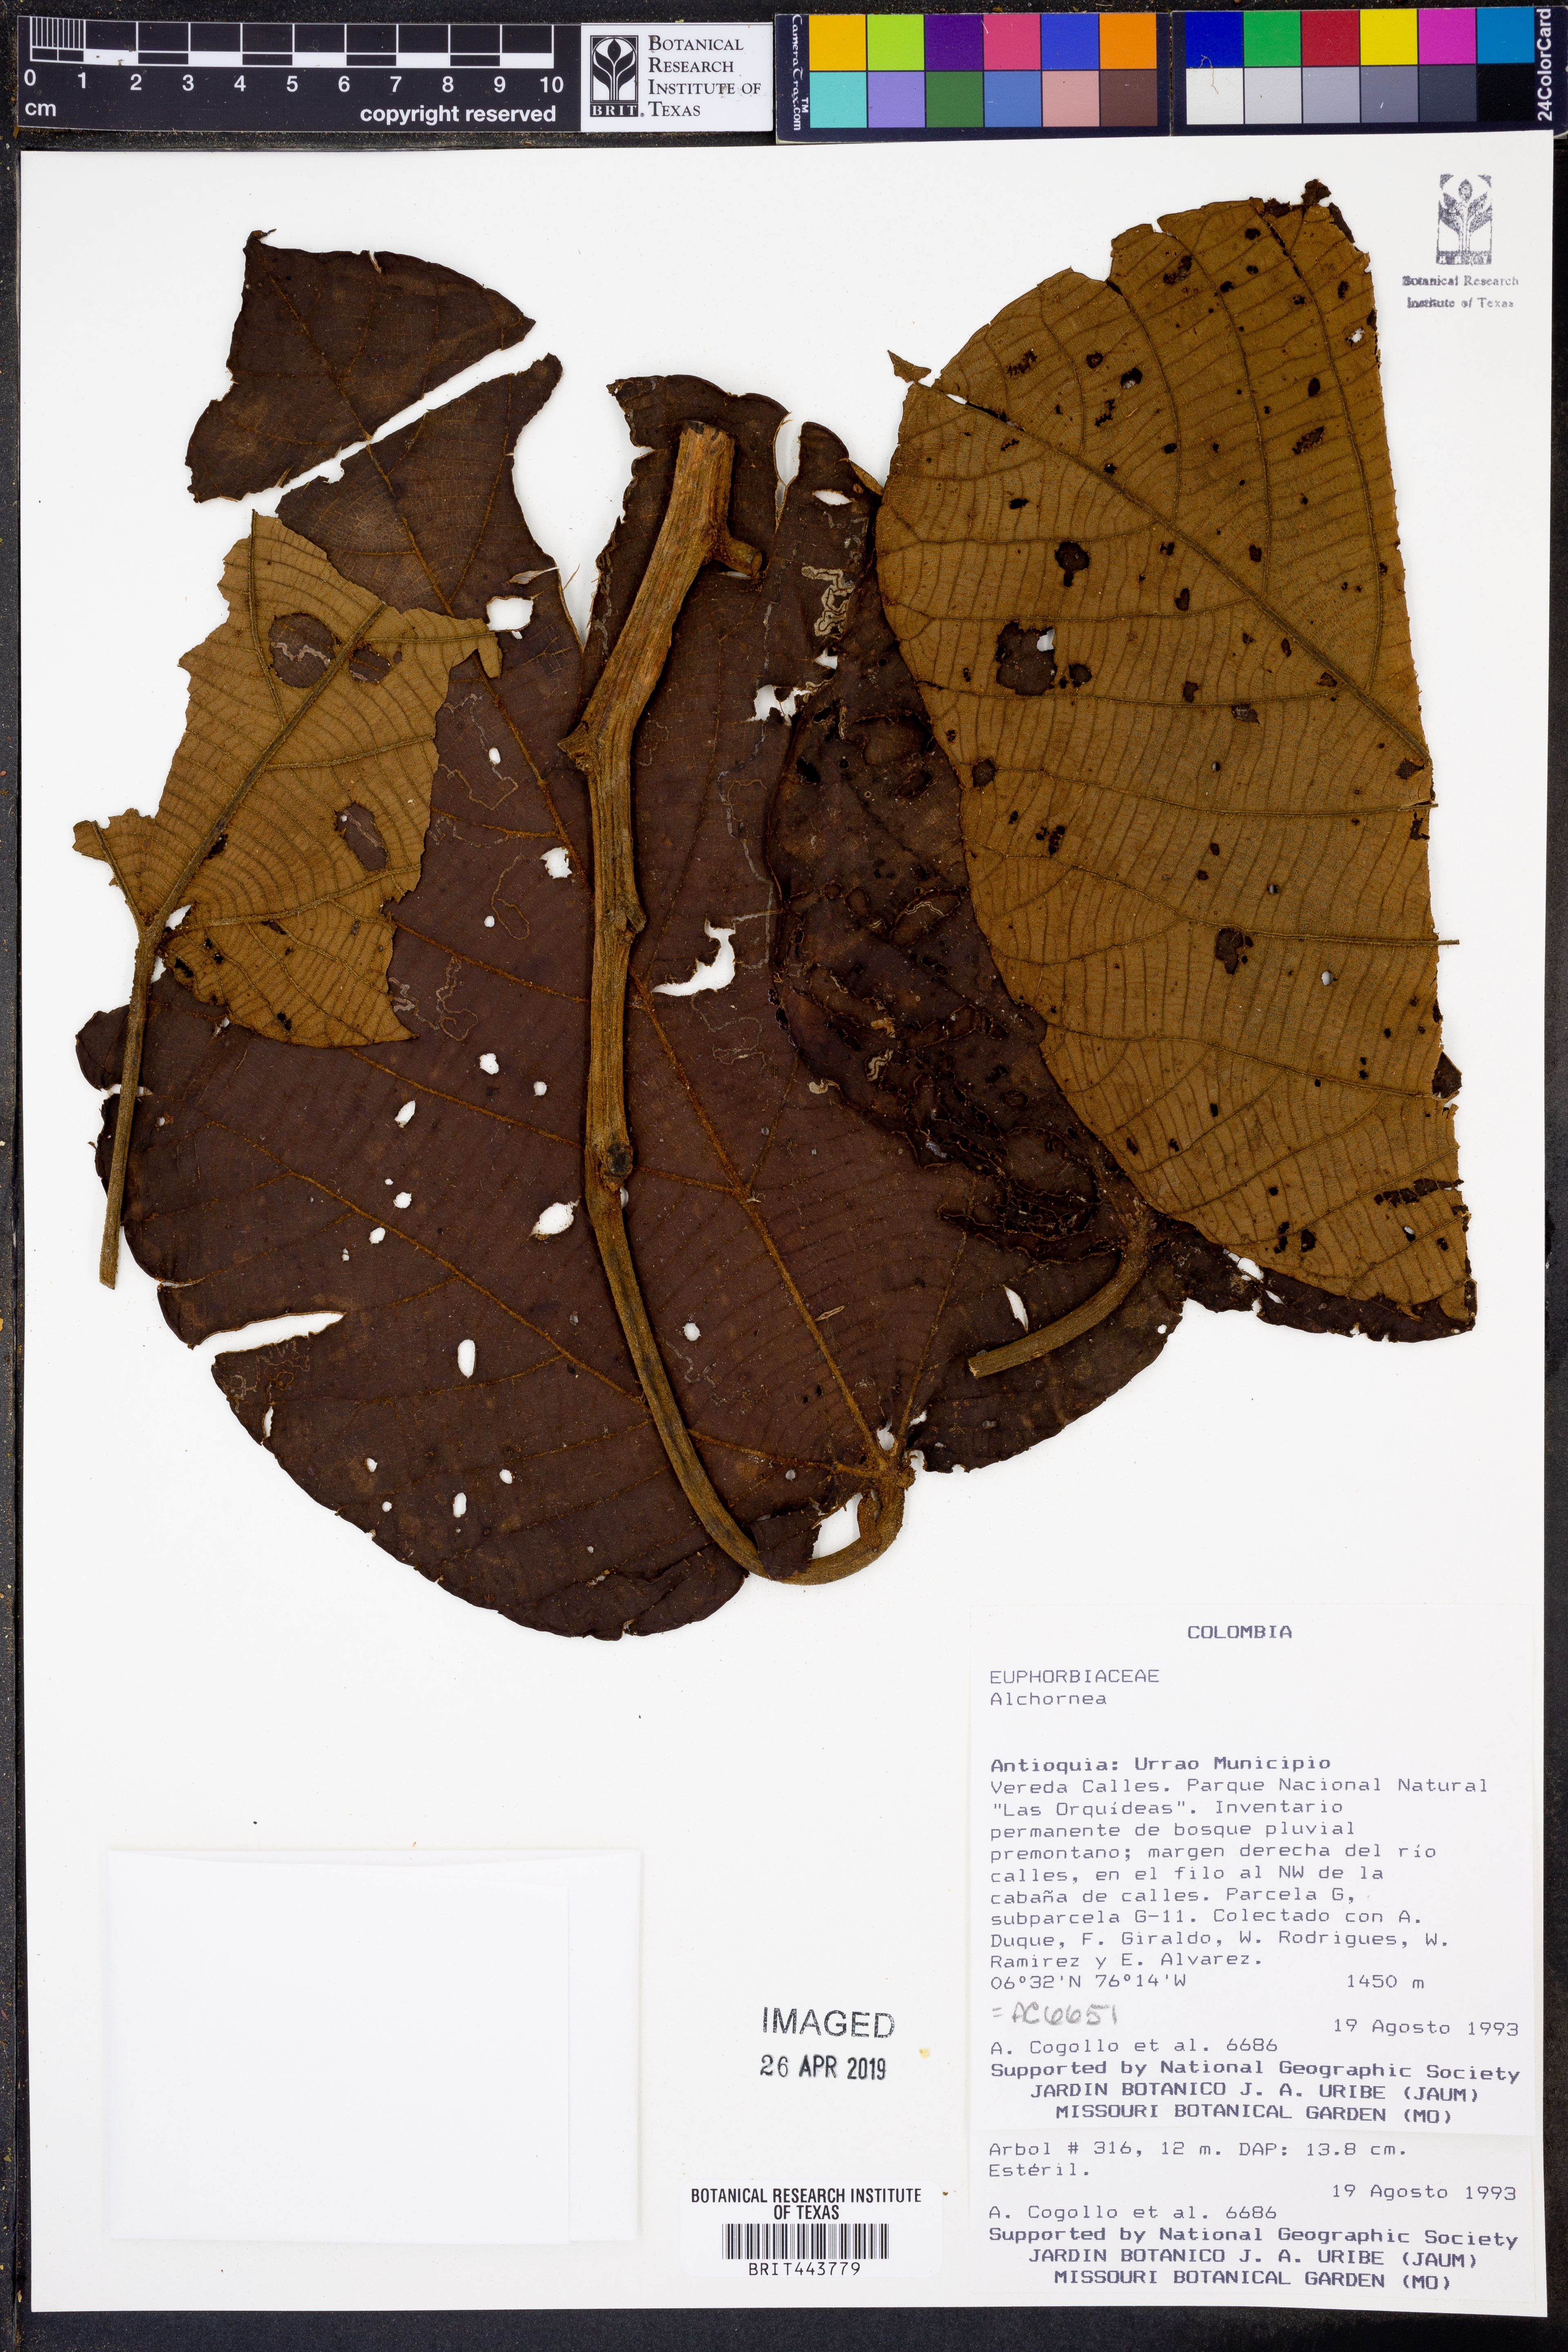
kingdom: Plantae
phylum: Tracheophyta
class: Magnoliopsida
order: Malpighiales
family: Euphorbiaceae
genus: Alchornea
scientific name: Alchornea
